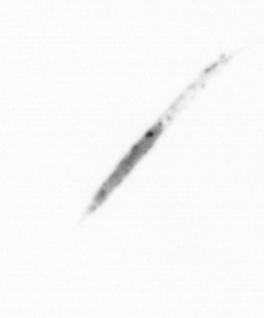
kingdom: Chromista
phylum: Ochrophyta
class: Bacillariophyceae
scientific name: Bacillariophyceae
